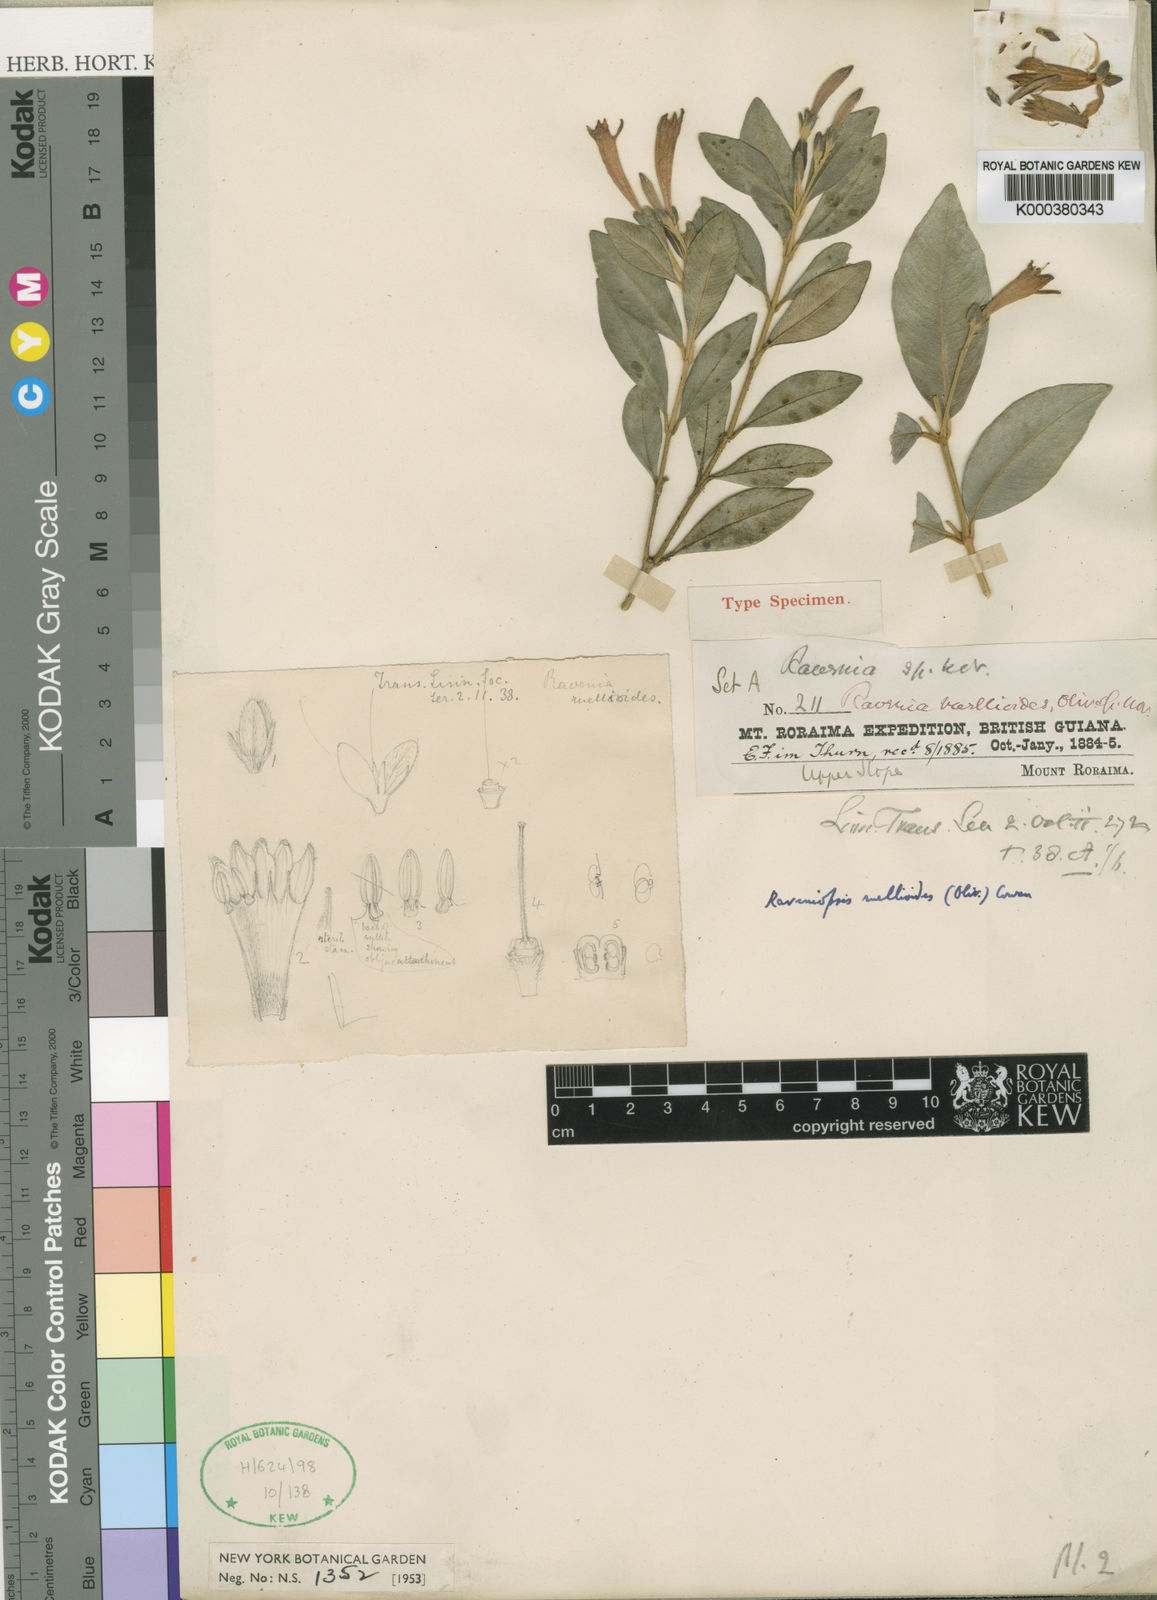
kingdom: Plantae
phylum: Tracheophyta
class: Magnoliopsida
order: Sapindales
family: Rutaceae
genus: Raveniopsis
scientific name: Raveniopsis ruellioides
